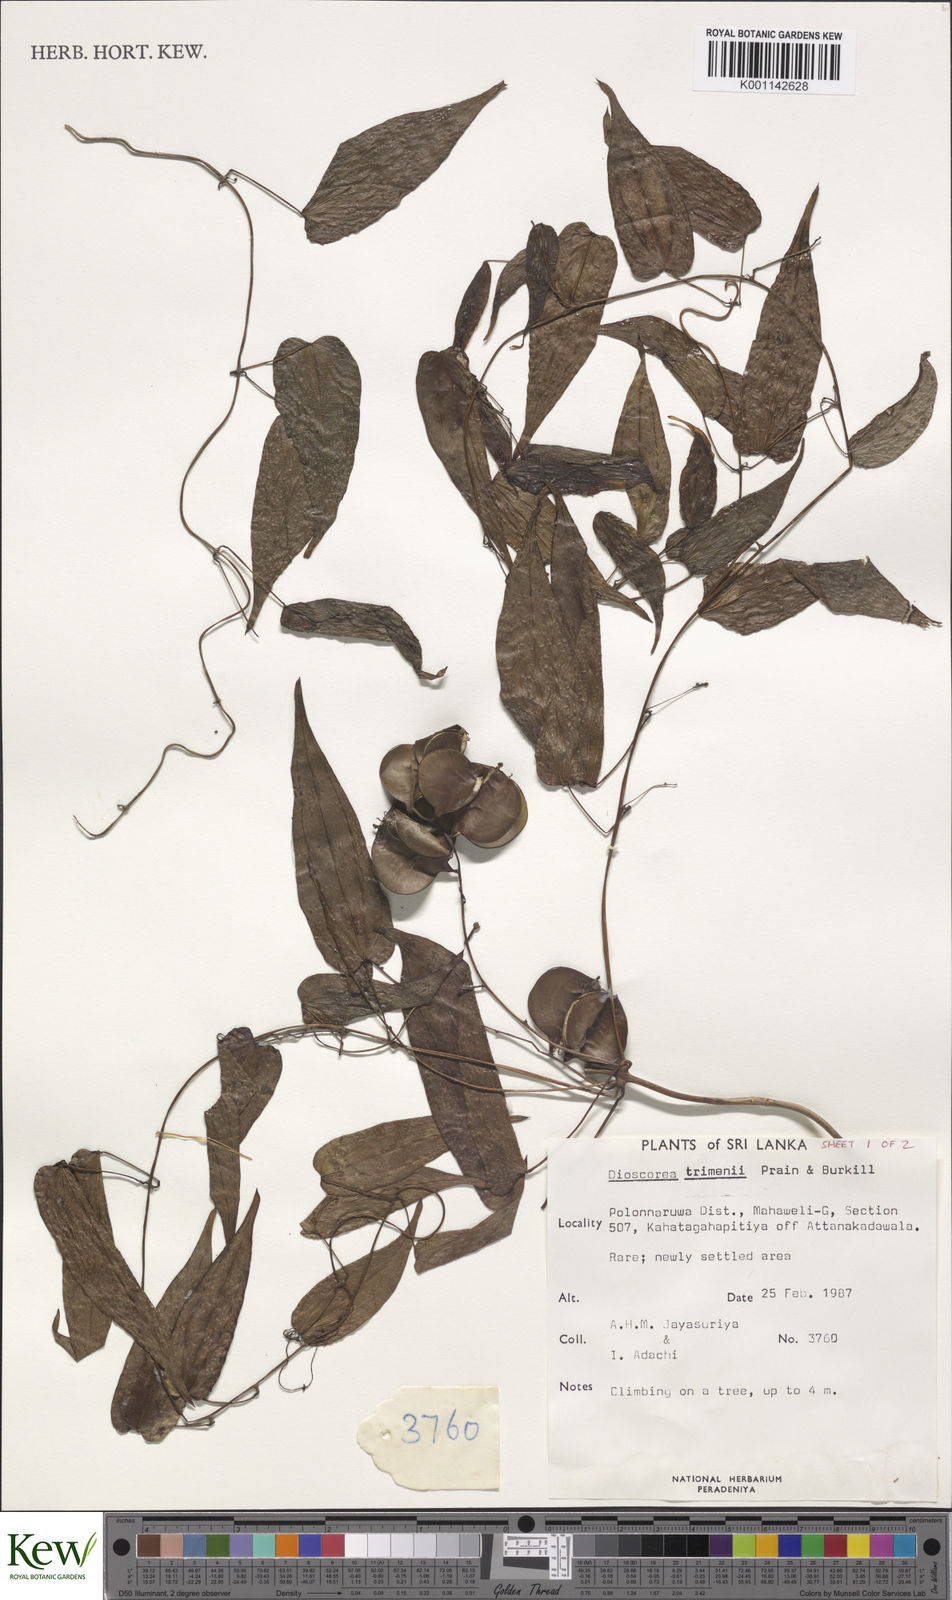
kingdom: Plantae
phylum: Tracheophyta
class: Liliopsida
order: Dioscoreales
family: Dioscoreaceae
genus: Dioscorea
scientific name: Dioscorea trimenii
